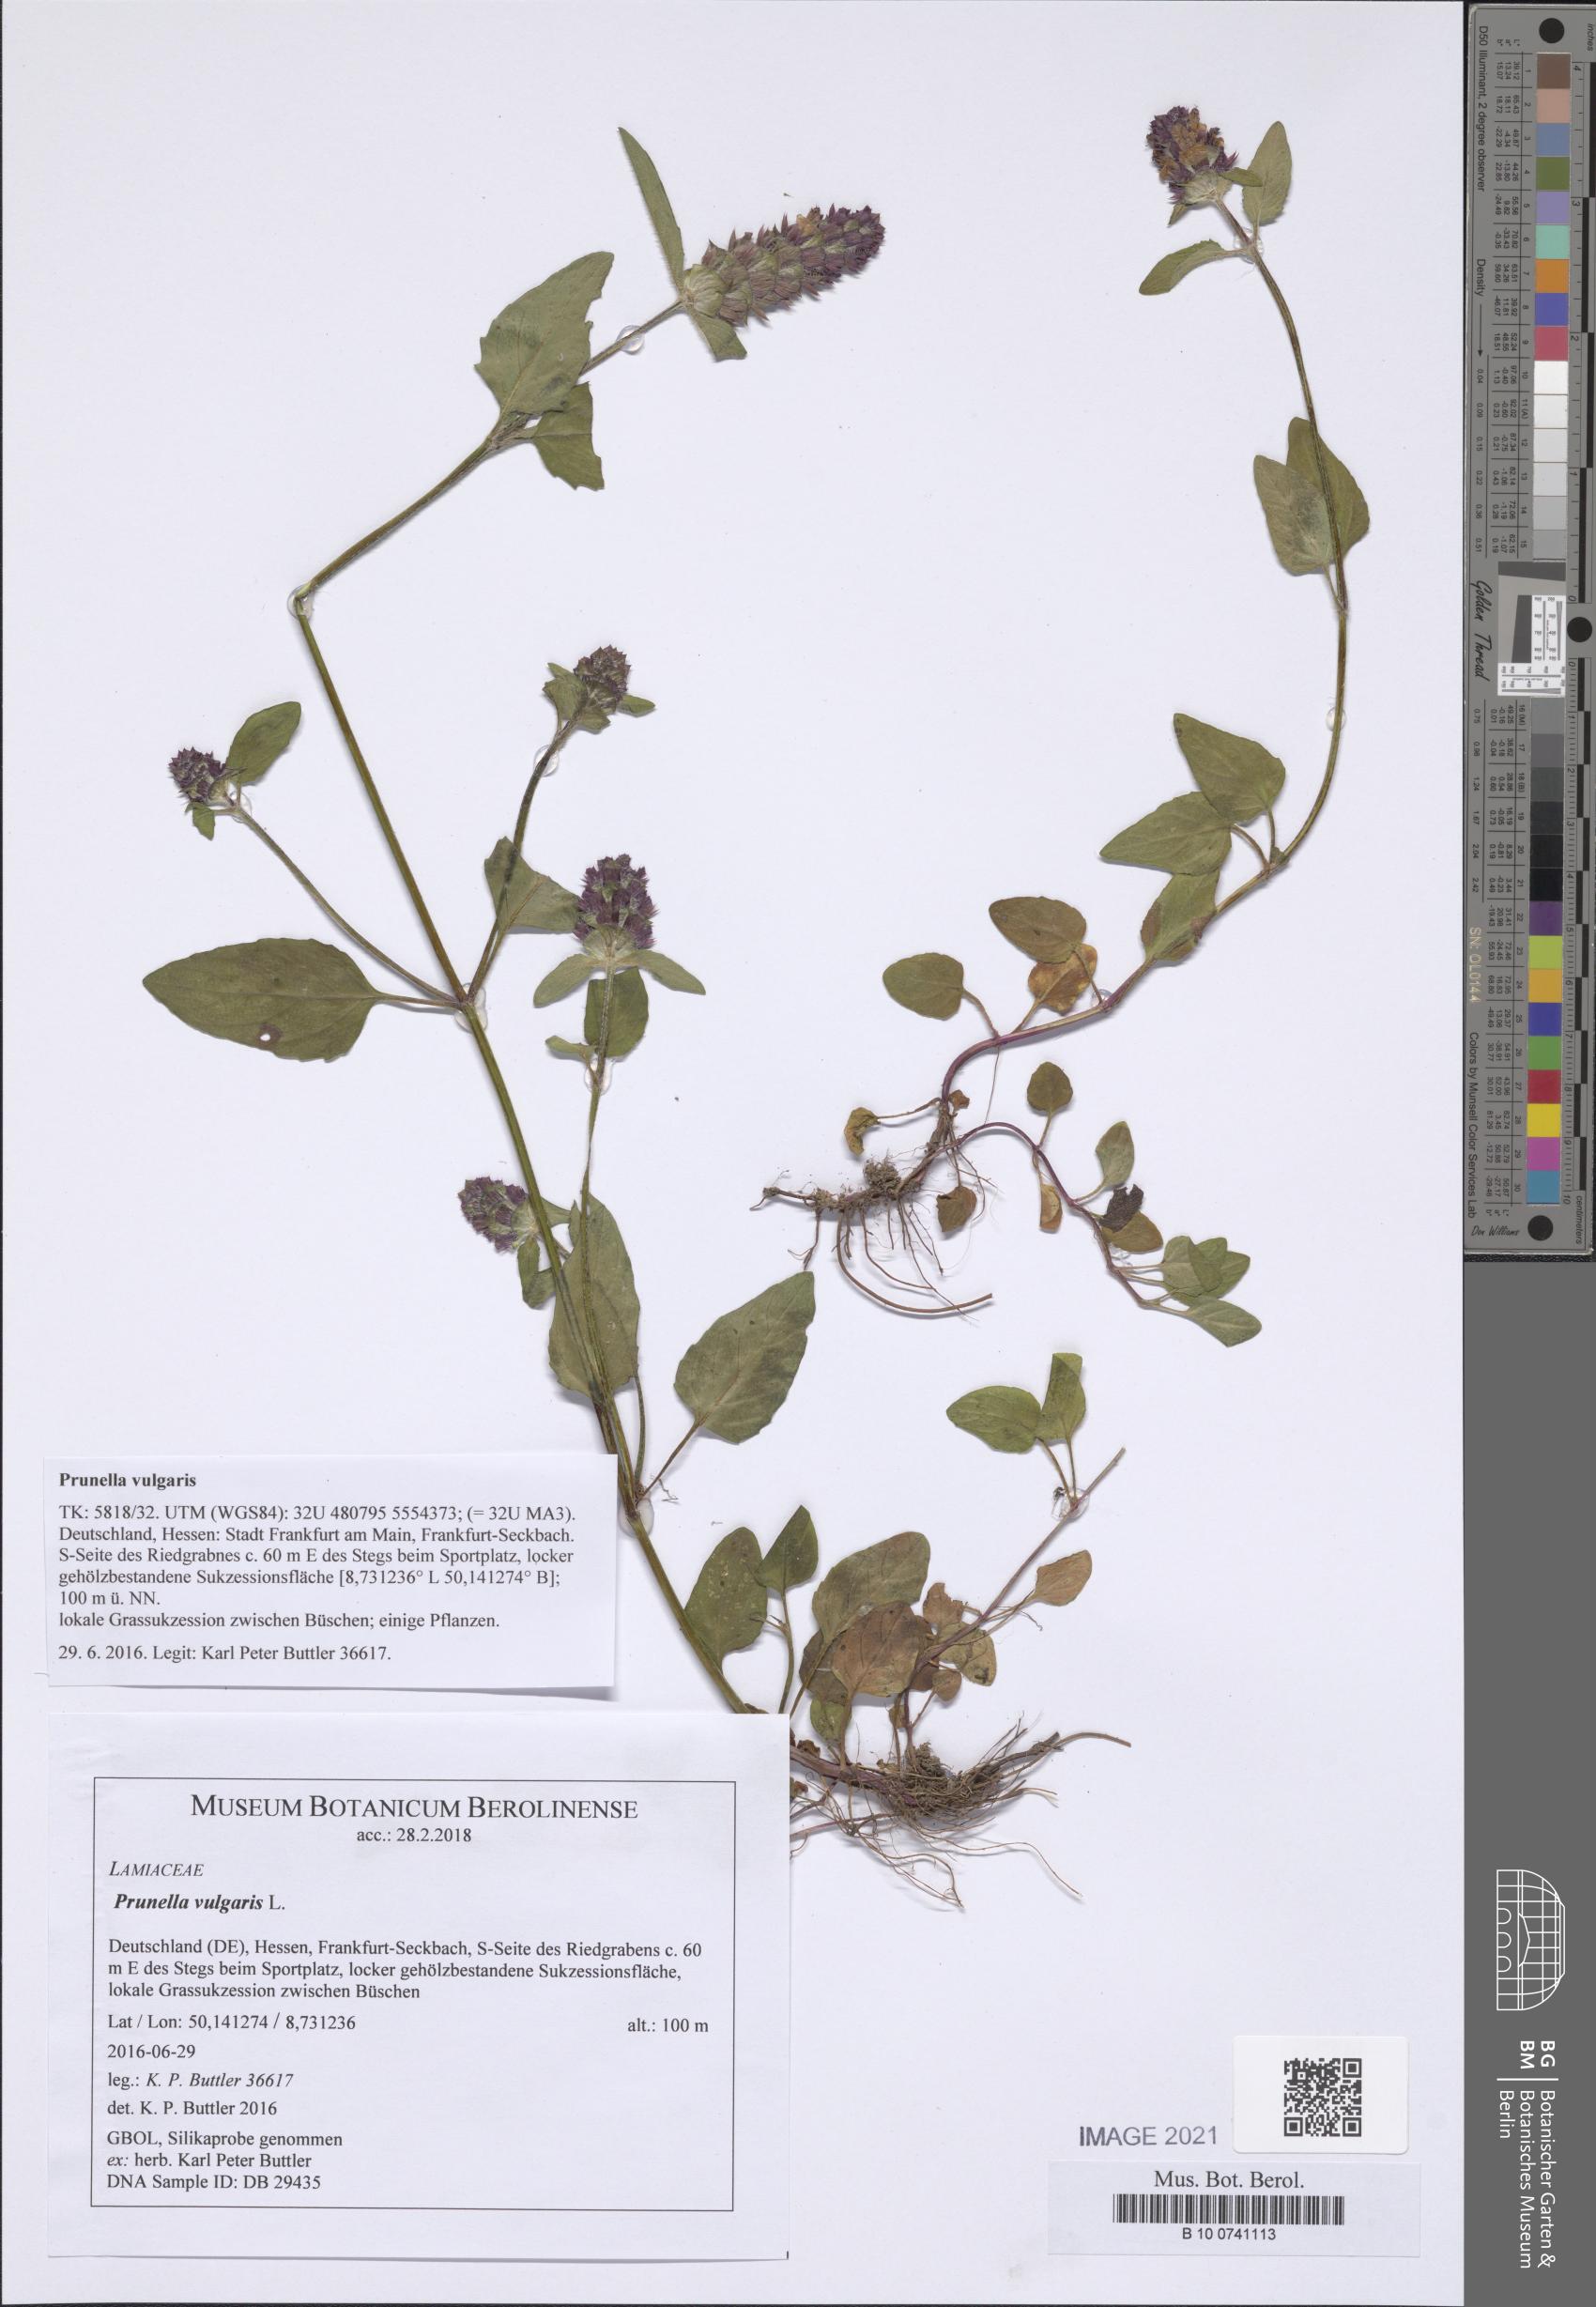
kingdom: Plantae
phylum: Tracheophyta
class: Magnoliopsida
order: Lamiales
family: Lamiaceae
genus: Prunella
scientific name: Prunella vulgaris
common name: Heal-all
